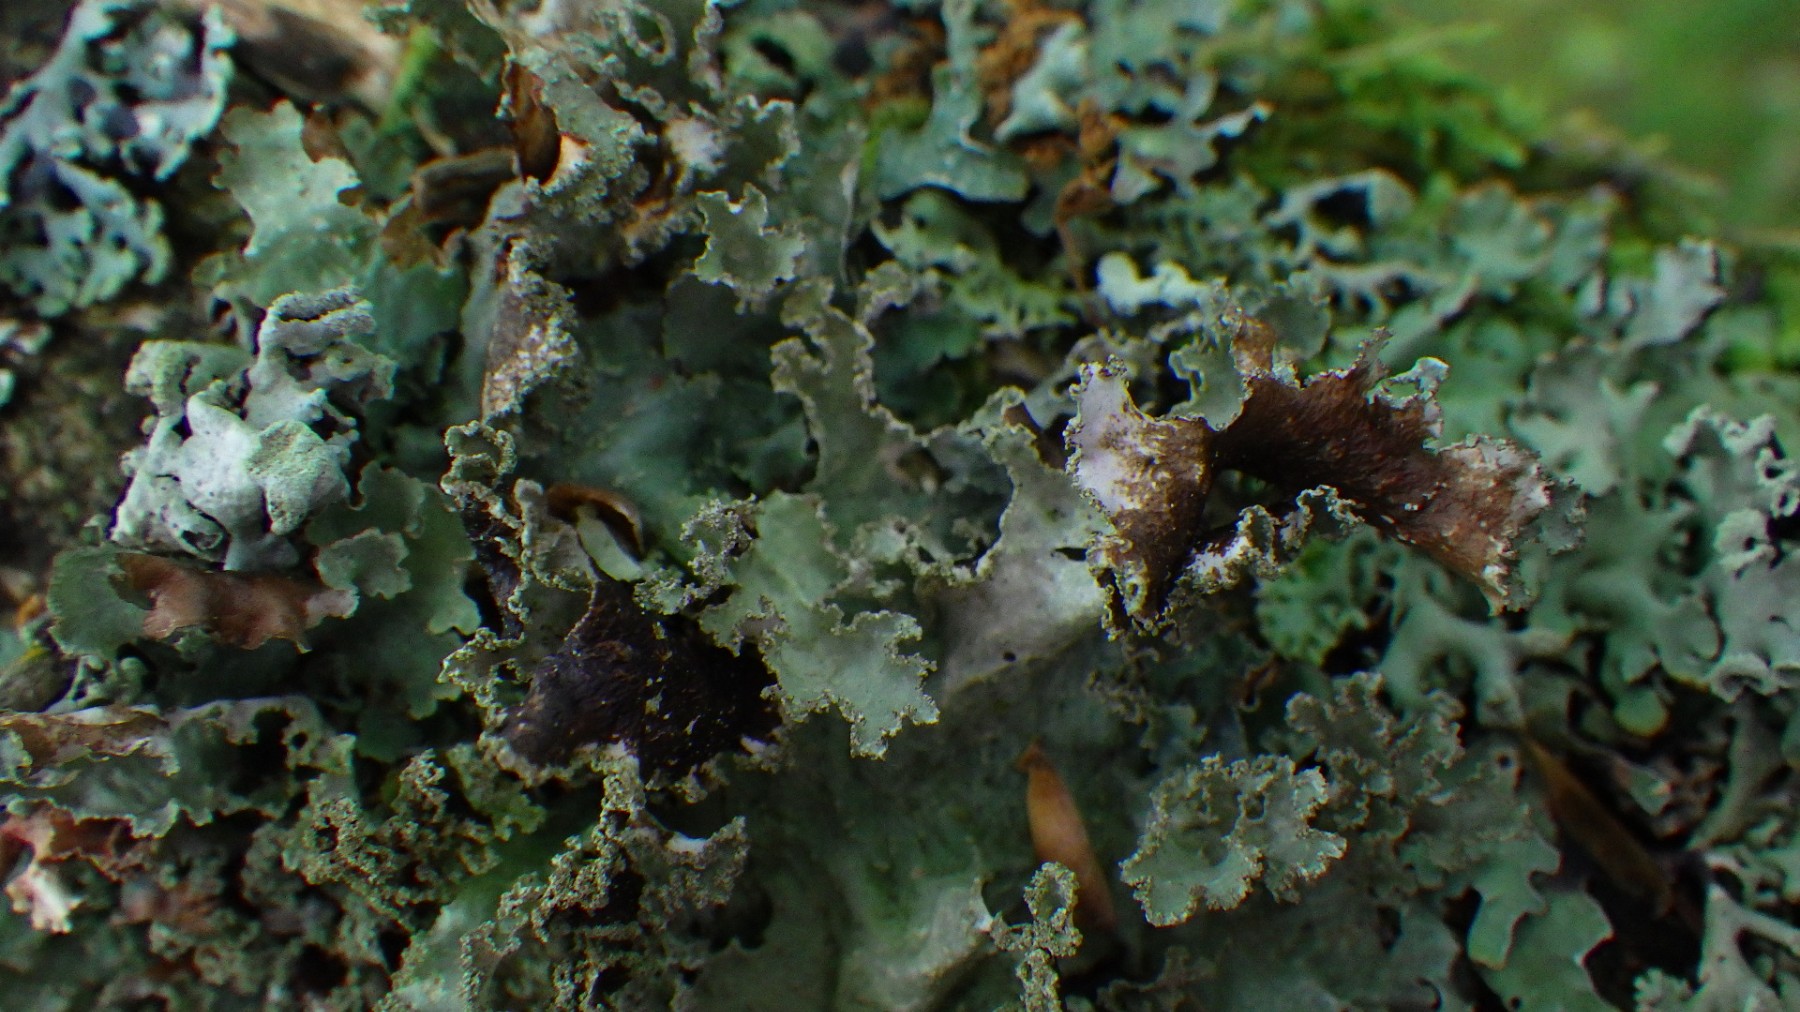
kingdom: Fungi
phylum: Ascomycota
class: Lecanoromycetes
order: Lecanorales
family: Parmeliaceae
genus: Platismatia
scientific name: Platismatia glauca
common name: blågrå papirlav
